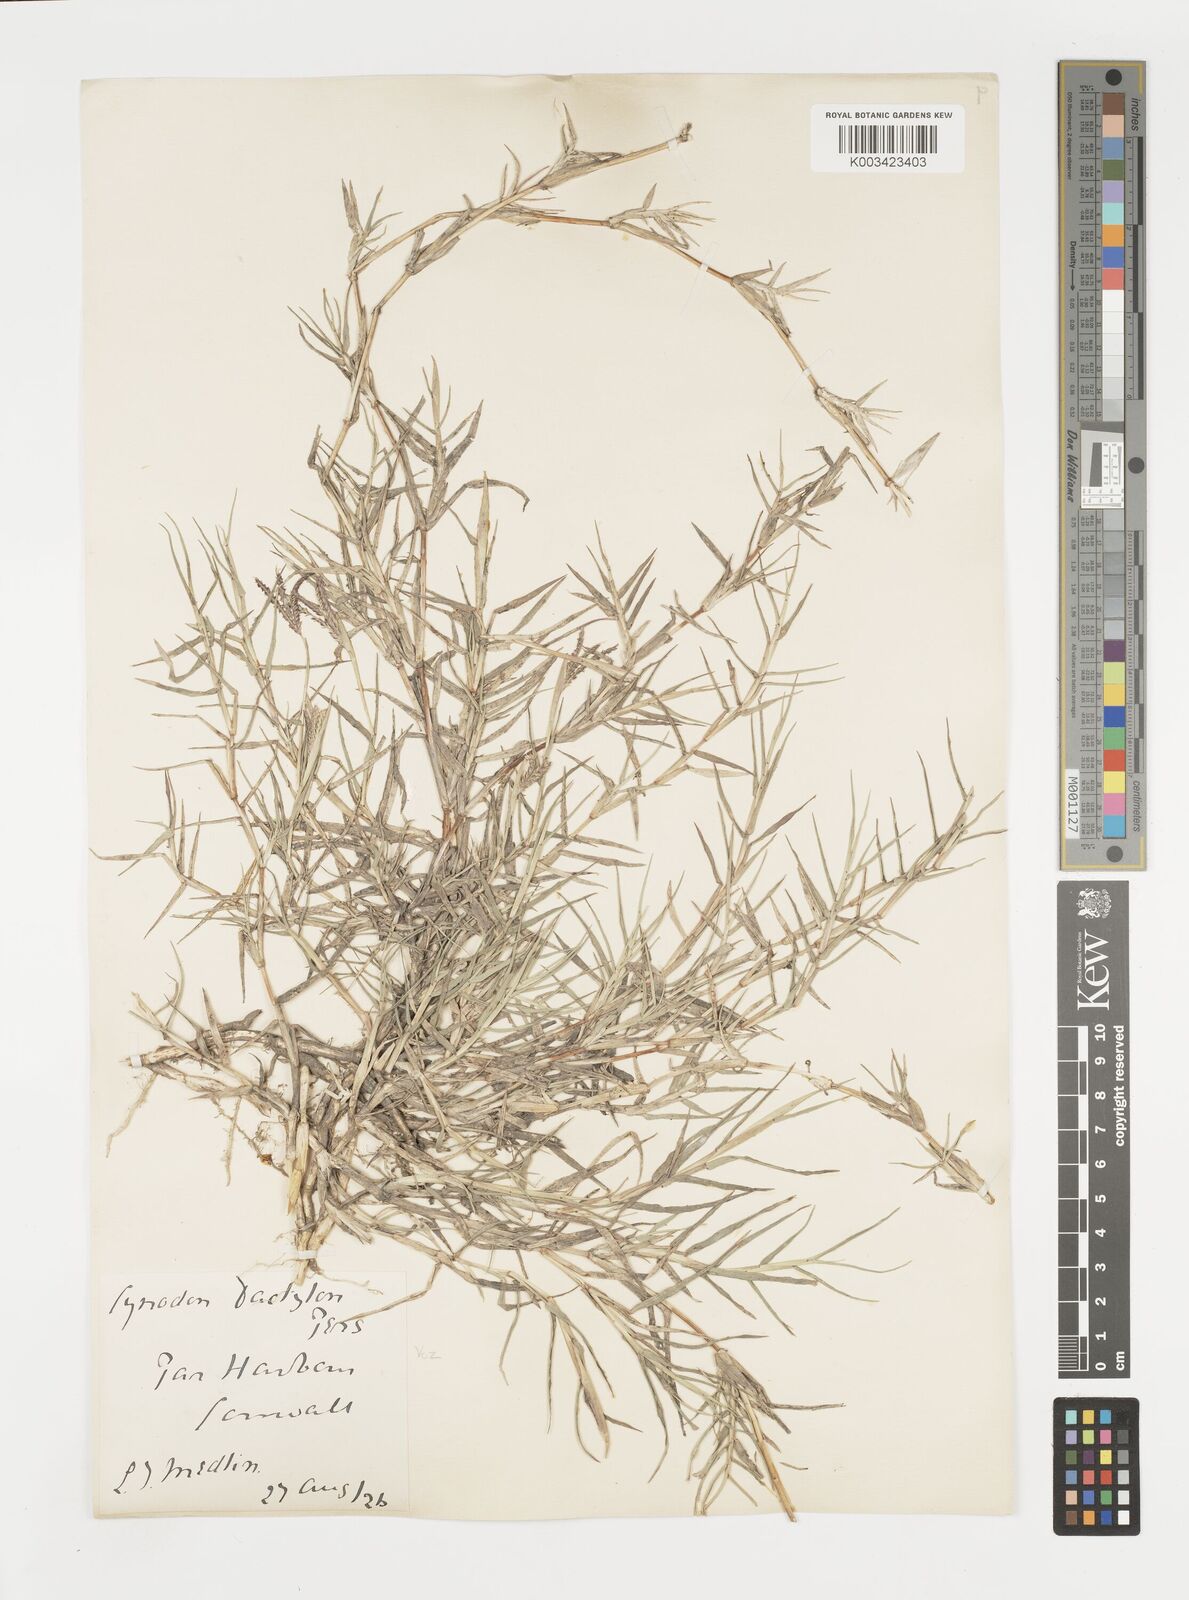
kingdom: Plantae
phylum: Tracheophyta
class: Liliopsida
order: Poales
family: Poaceae
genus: Cynodon
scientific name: Cynodon dactylon
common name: Bermuda grass
